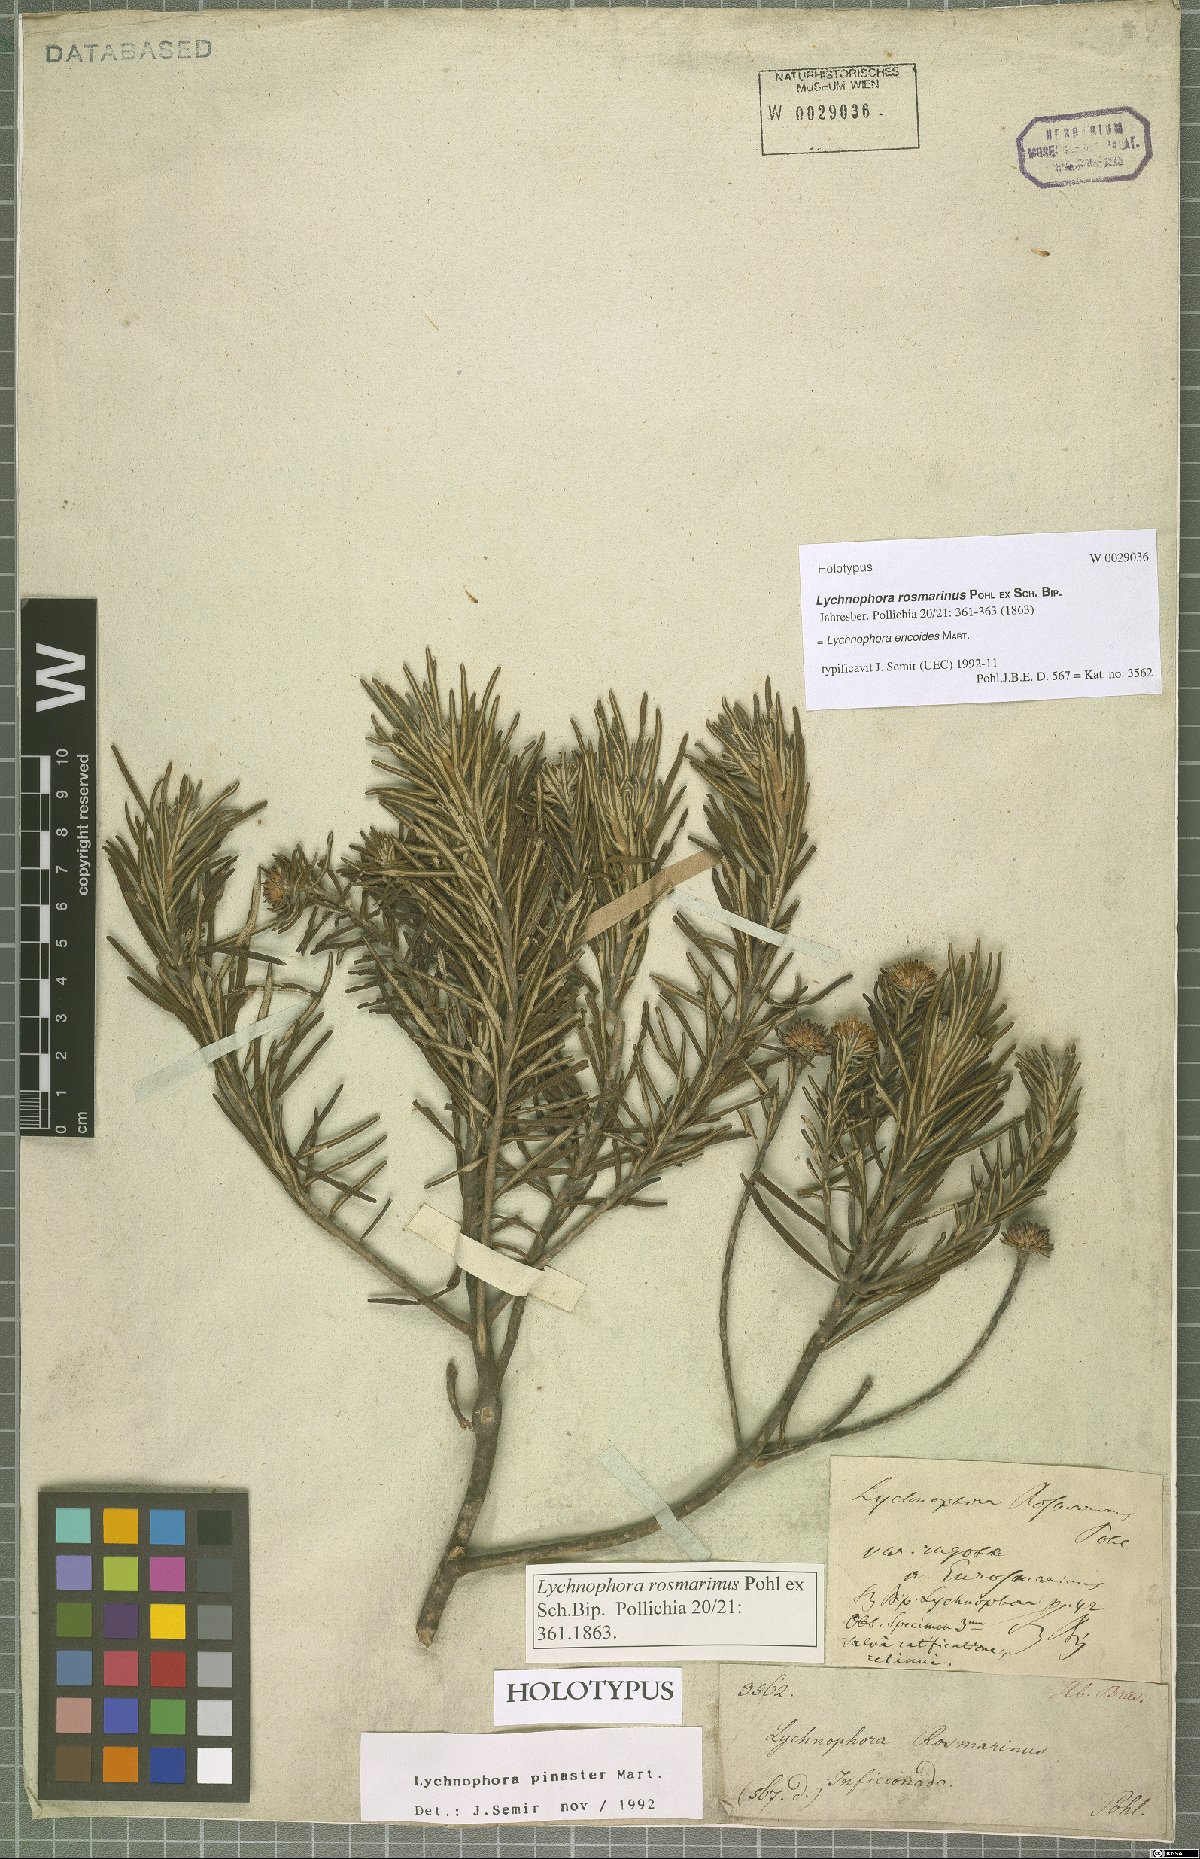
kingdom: Plantae
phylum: Tracheophyta
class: Magnoliopsida
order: Asterales
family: Asteraceae
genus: Lychnophora
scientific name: Lychnophora ericoides
